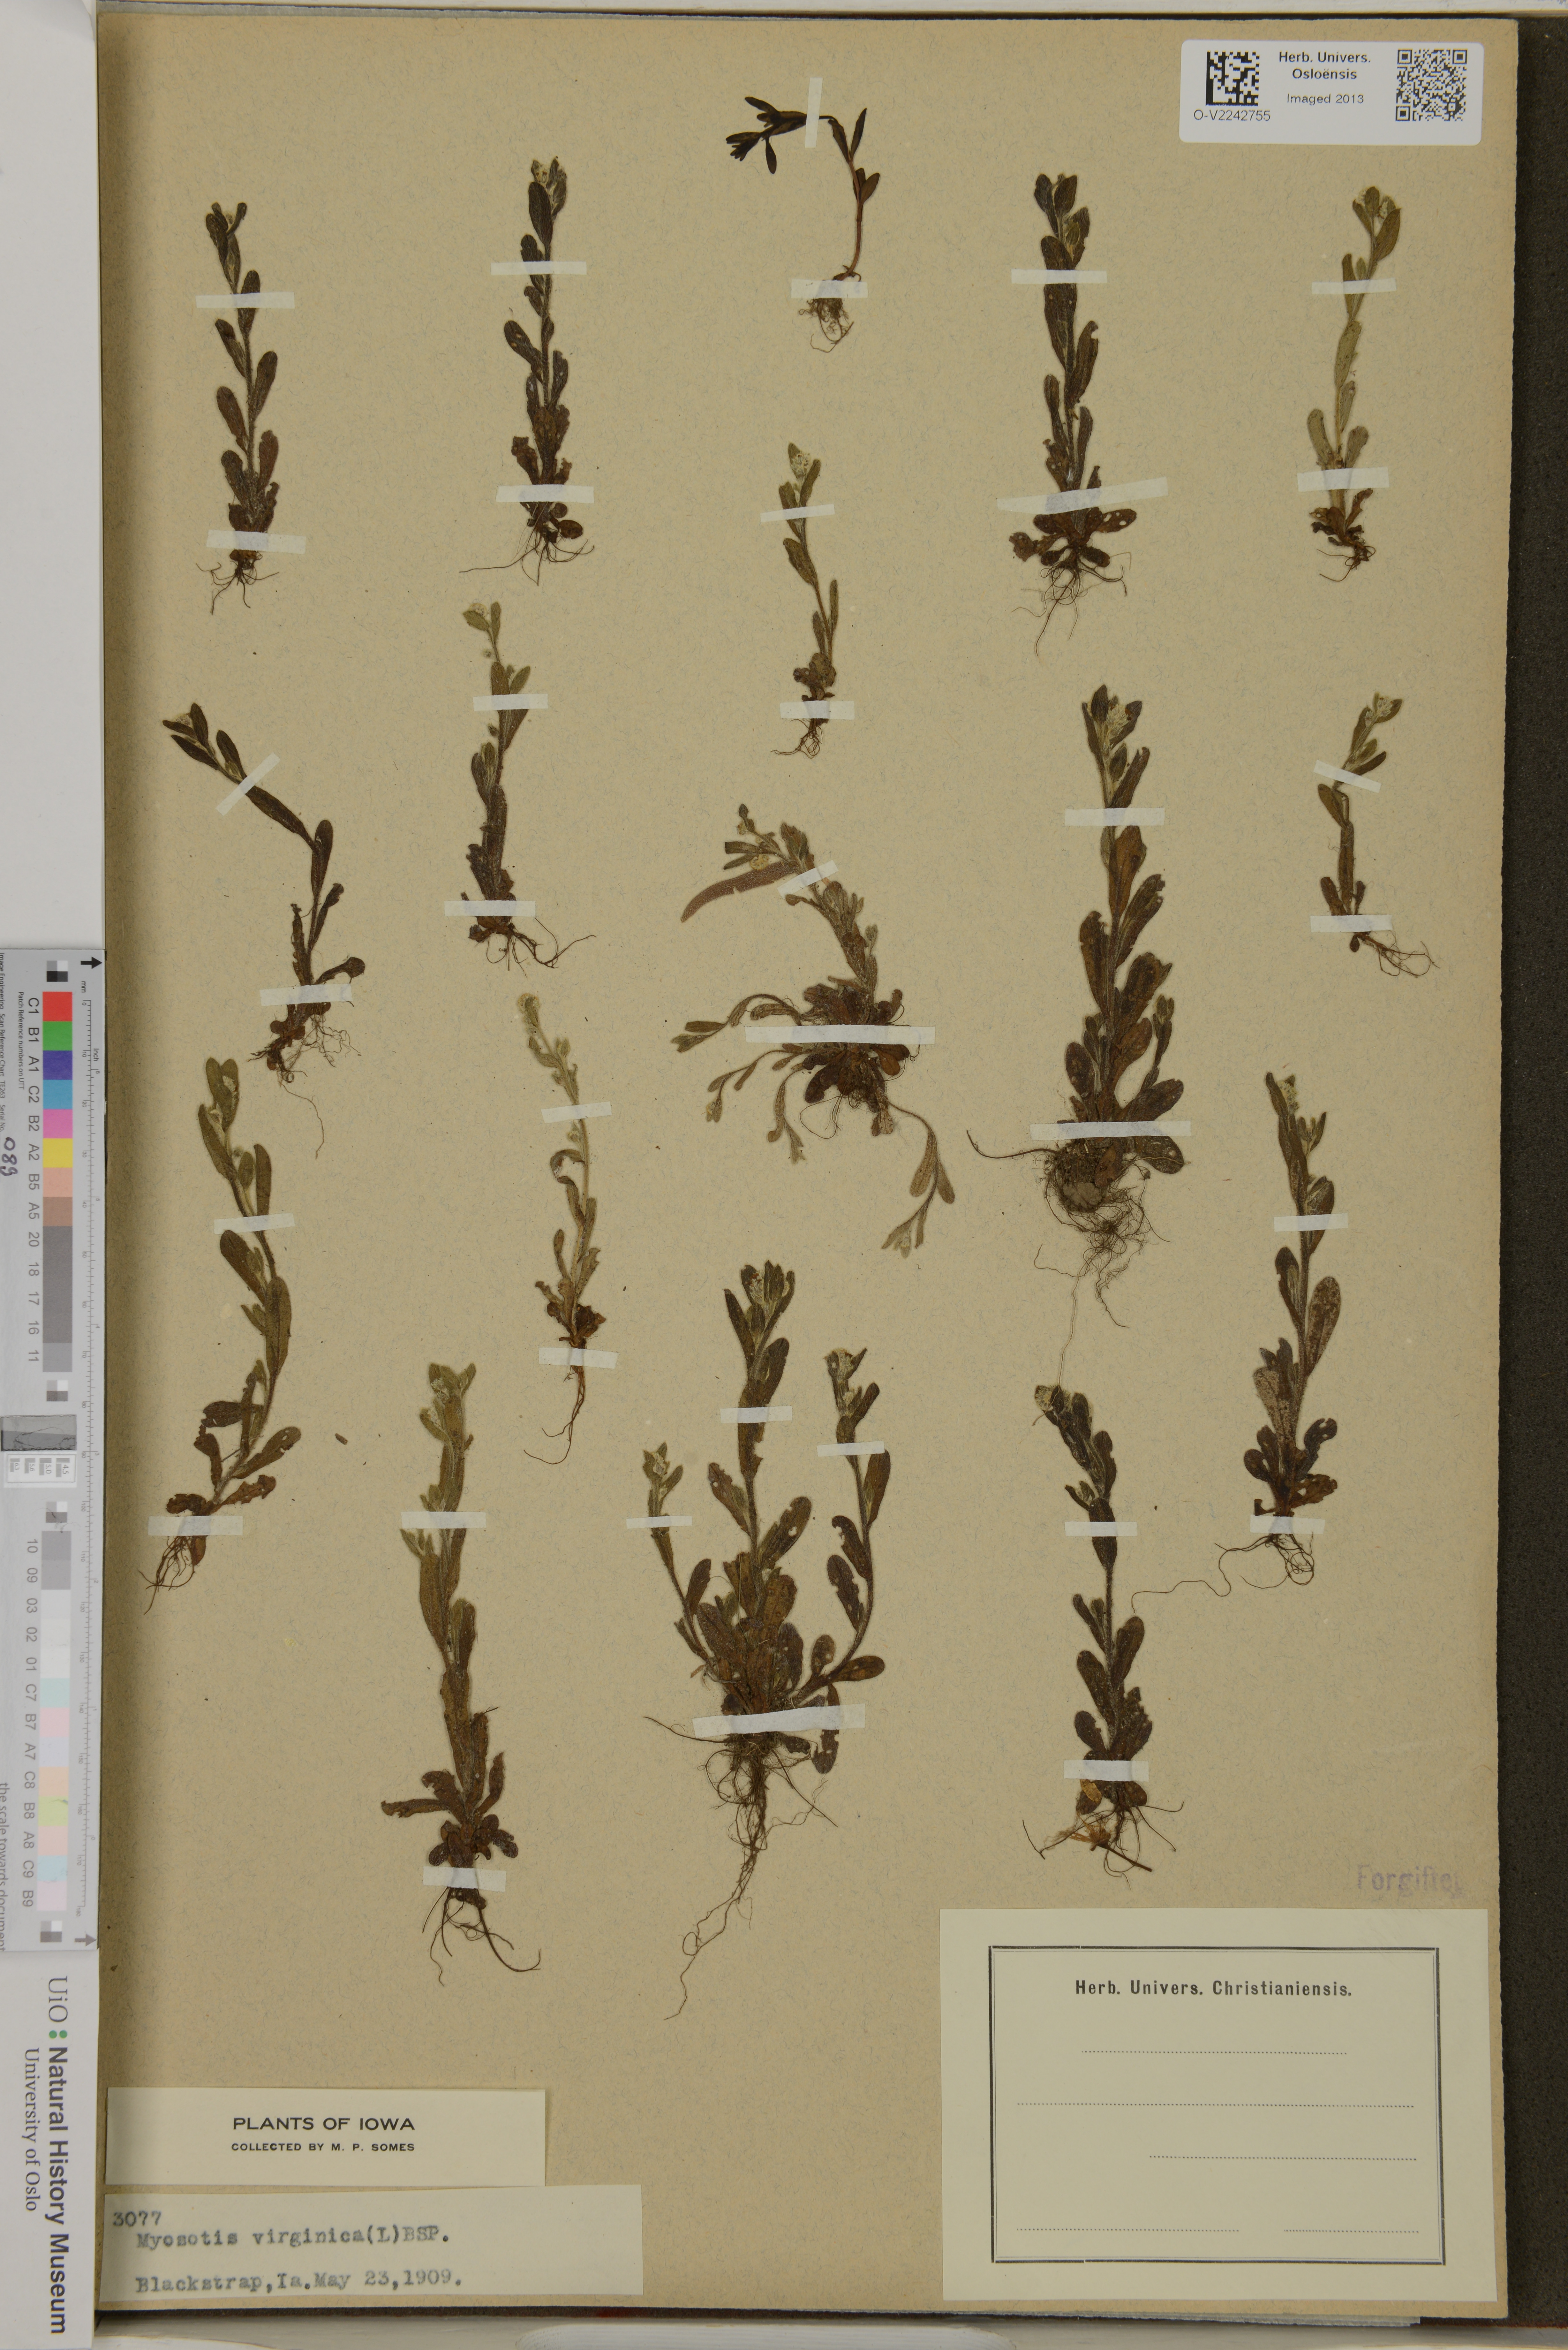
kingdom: Plantae
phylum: Tracheophyta
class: Magnoliopsida
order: Boraginales
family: Boraginaceae
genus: Myosotis
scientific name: Myosotis virginica
